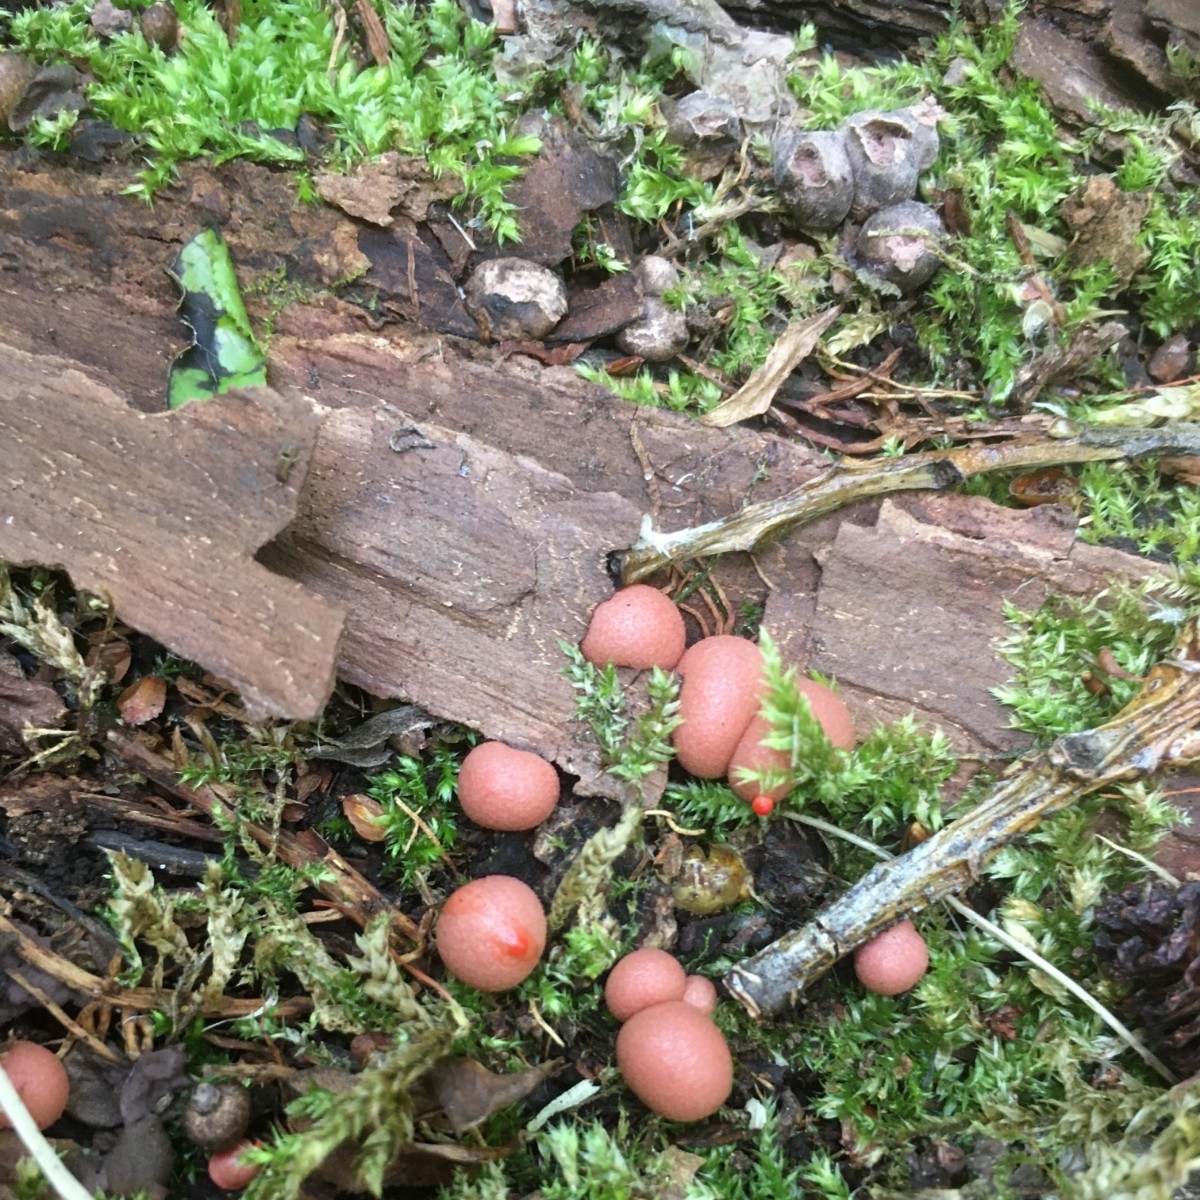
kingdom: Protozoa
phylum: Mycetozoa
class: Myxomycetes
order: Cribrariales
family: Tubiferaceae
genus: Lycogala
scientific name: Lycogala epidendrum
